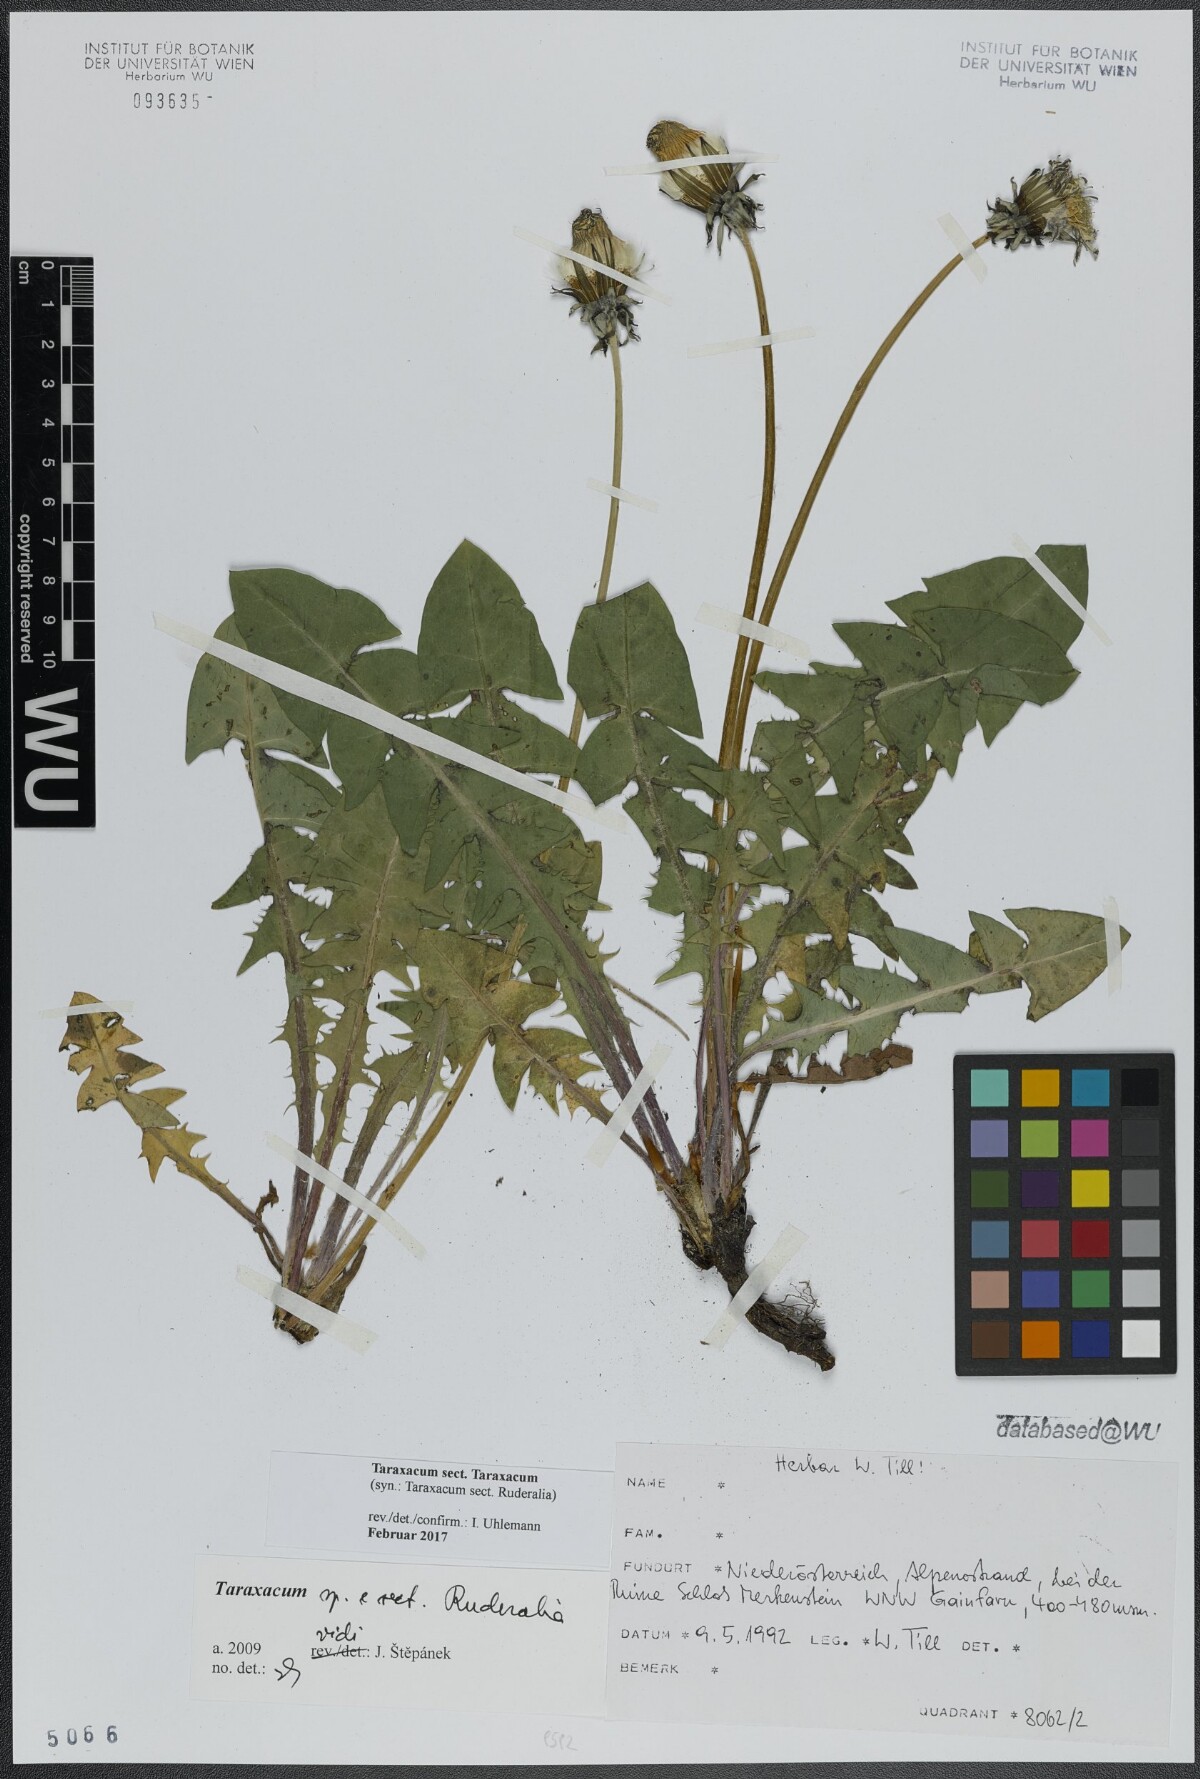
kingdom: Plantae
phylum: Tracheophyta
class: Magnoliopsida
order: Asterales
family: Asteraceae
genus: Taraxacum
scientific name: Taraxacum
